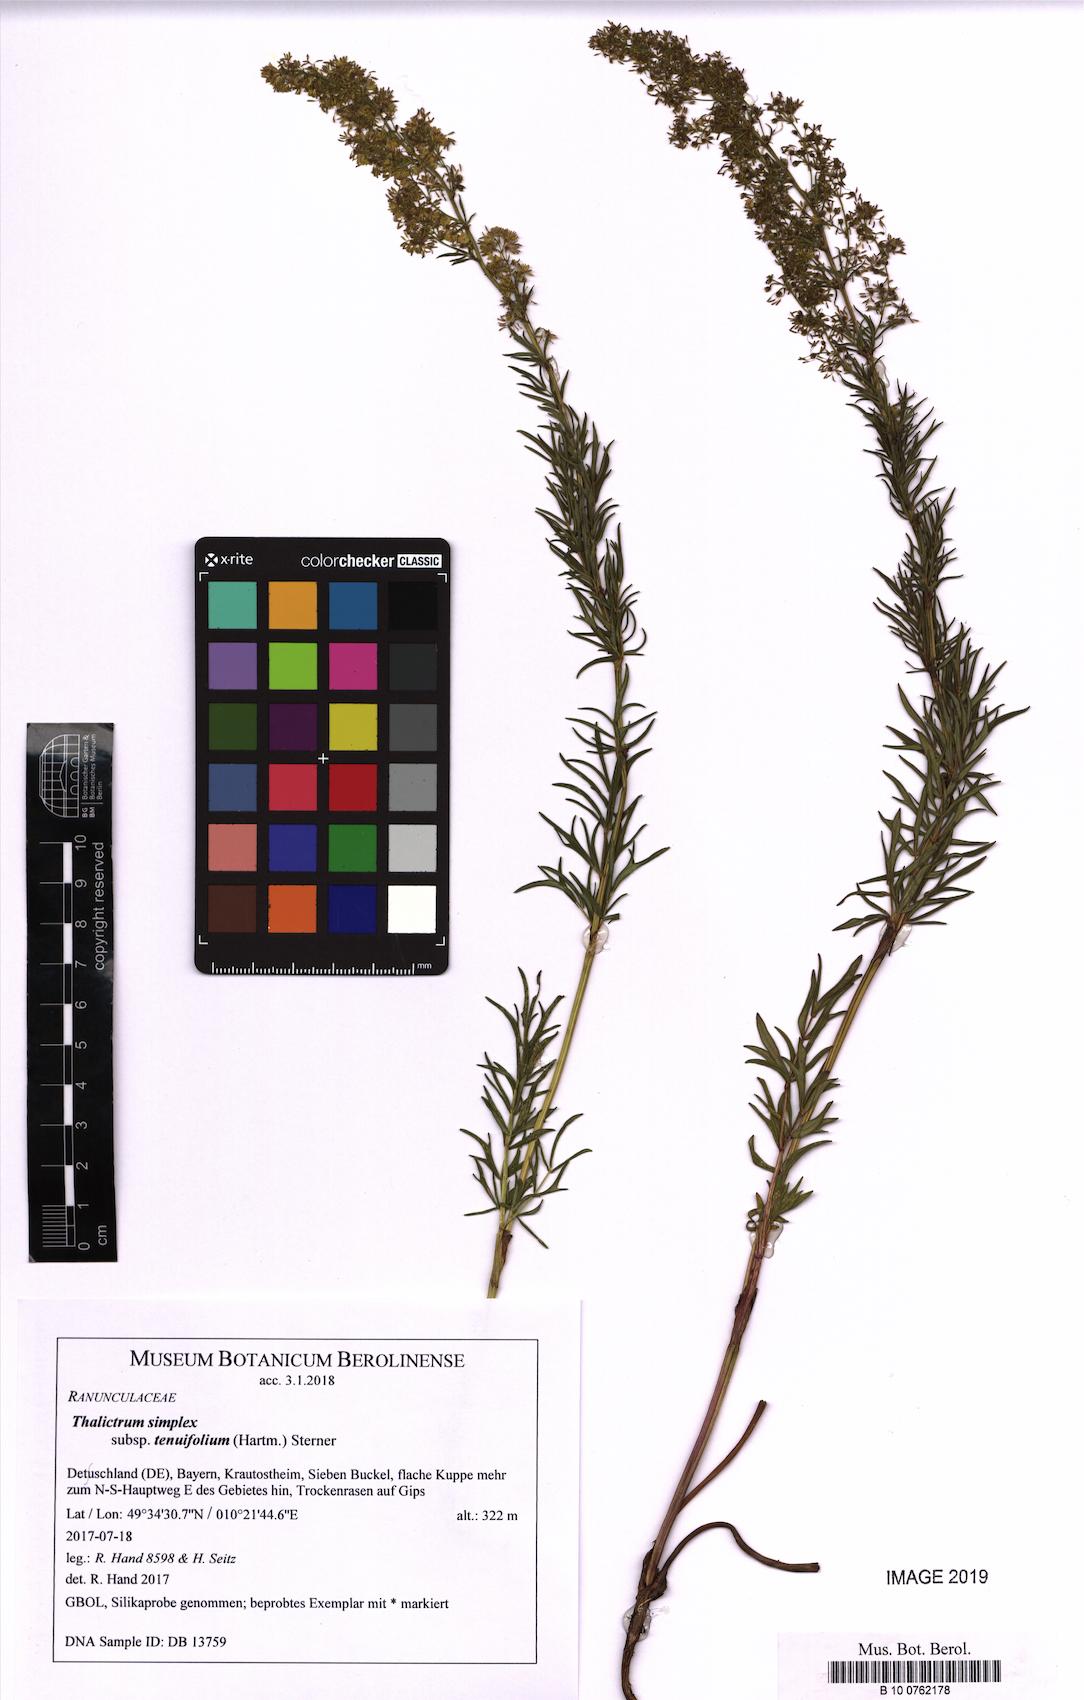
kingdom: Plantae
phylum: Tracheophyta
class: Magnoliopsida
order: Ranunculales
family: Ranunculaceae
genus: Thalictrum
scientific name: Thalictrum simplex
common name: Small meadow-rue
